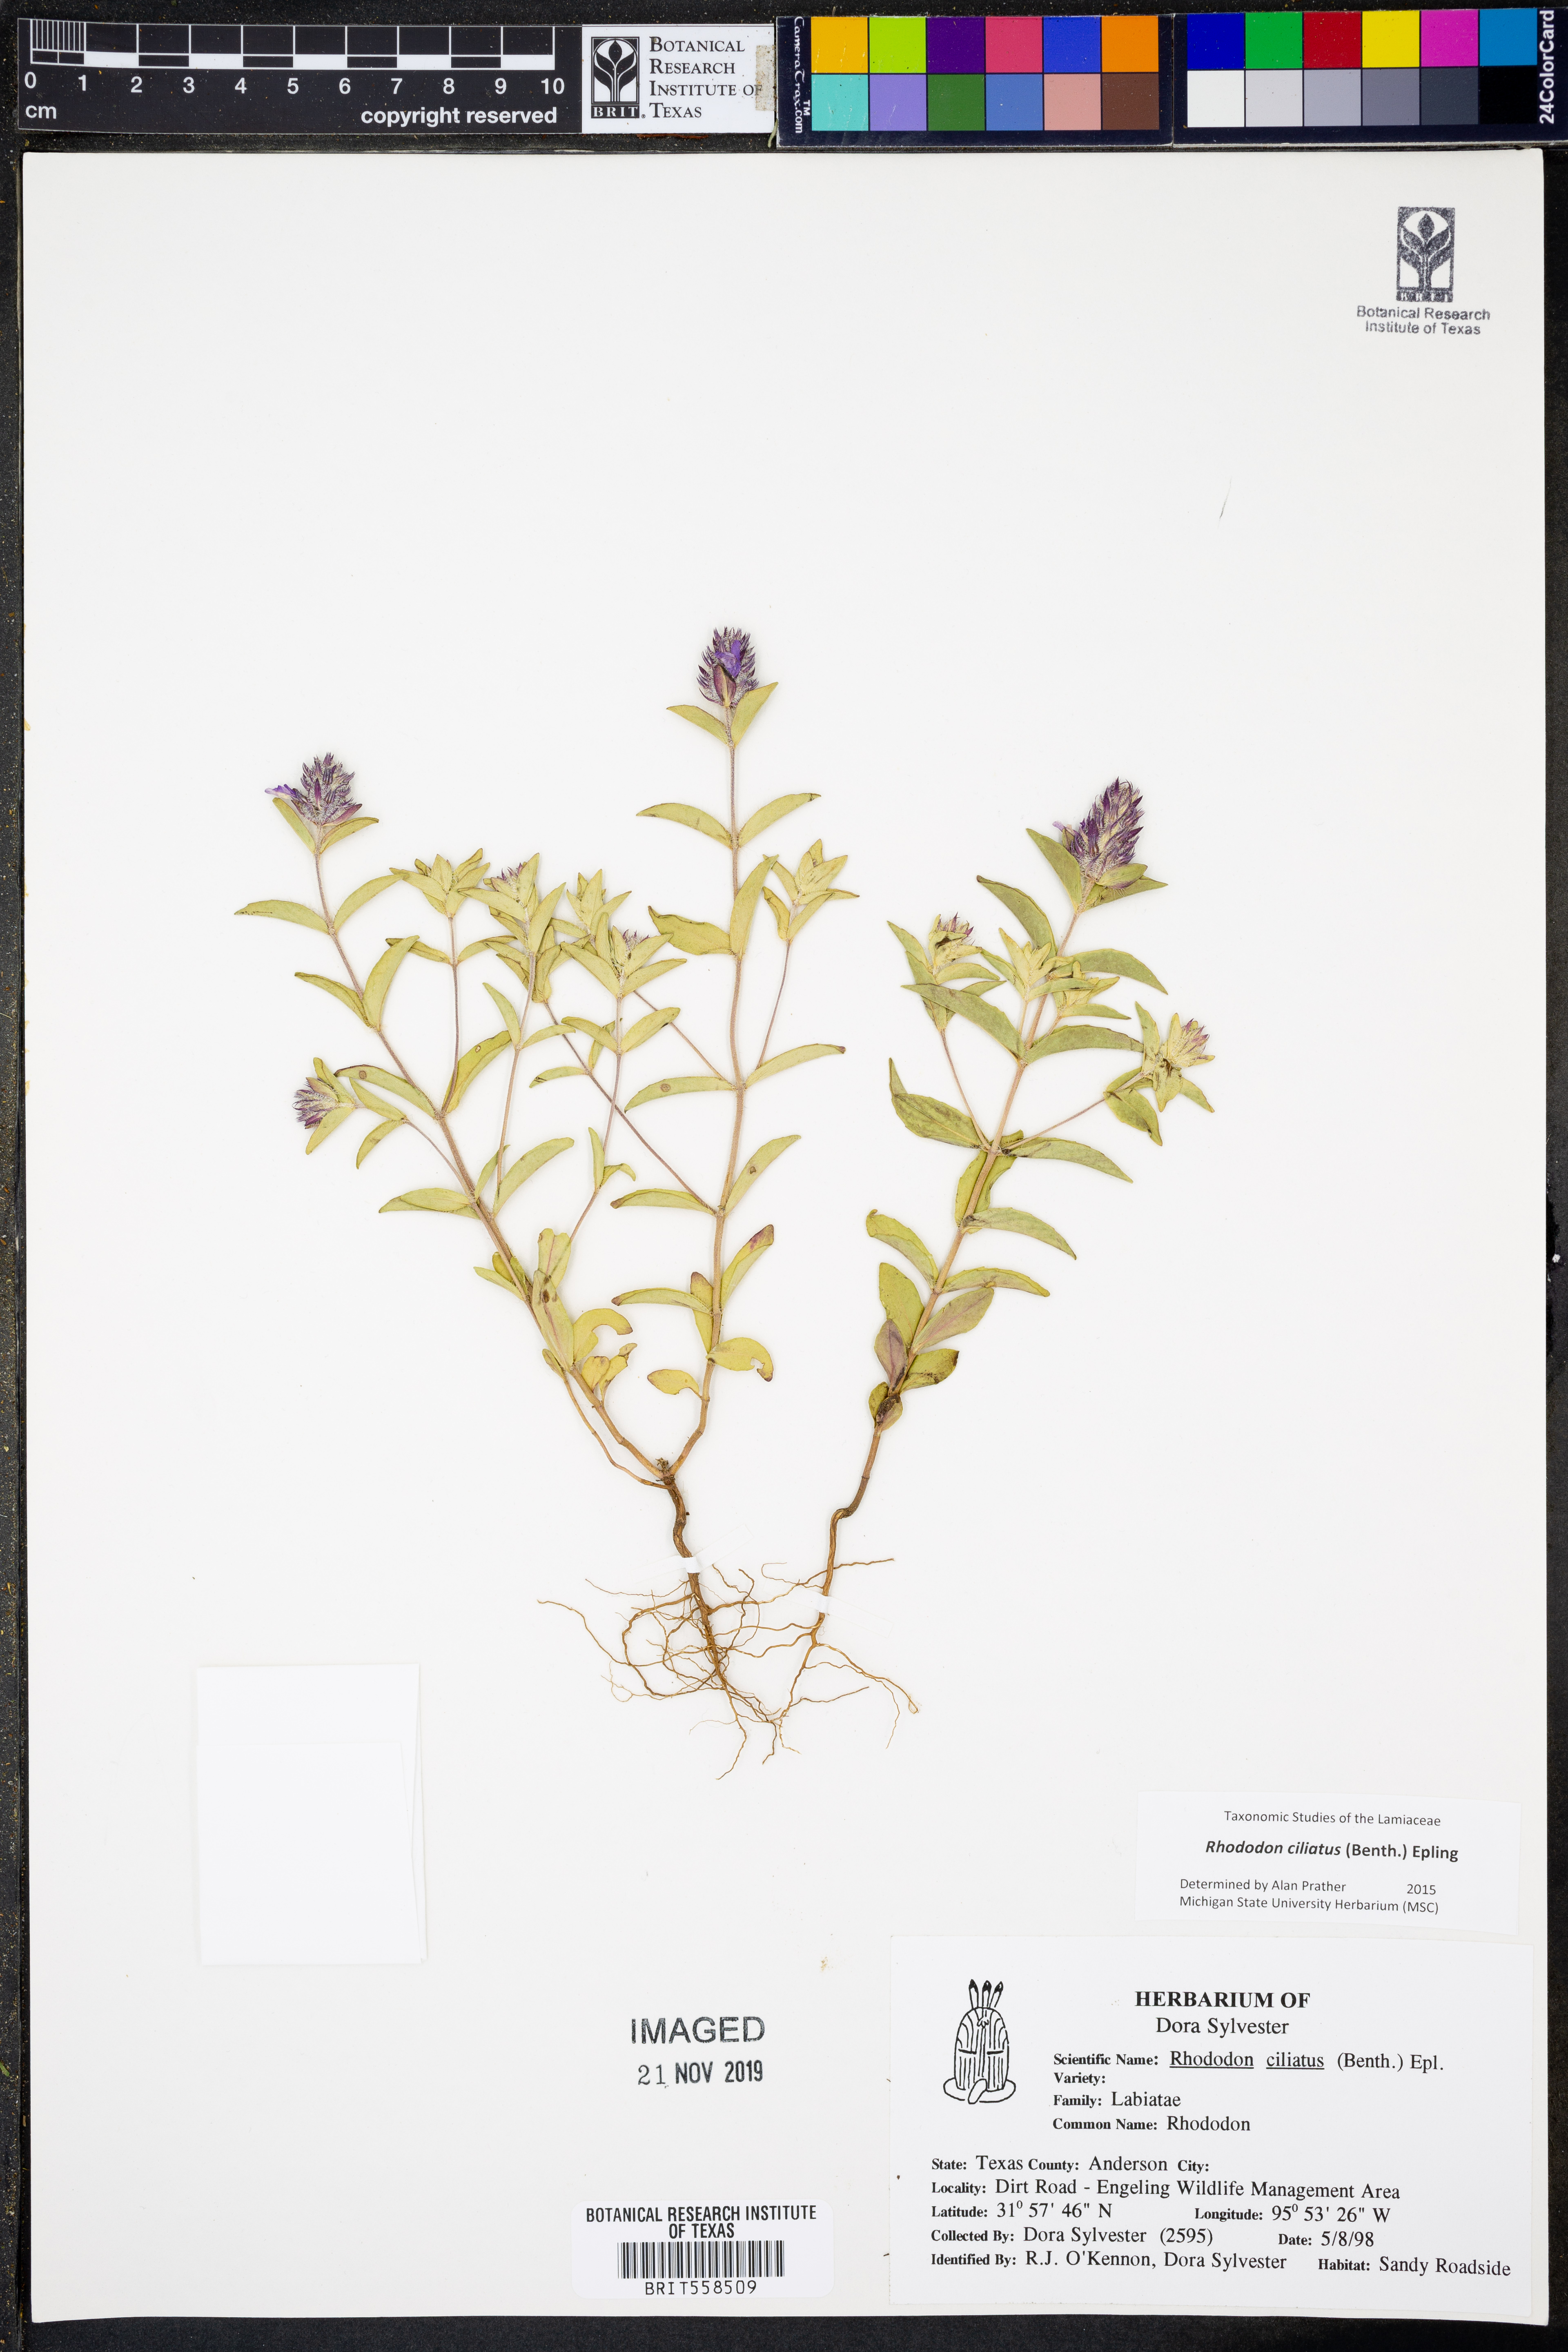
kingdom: Plantae
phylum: Tracheophyta
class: Magnoliopsida
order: Lamiales
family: Lamiaceae
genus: Rhododon
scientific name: Rhododon ciliatus
